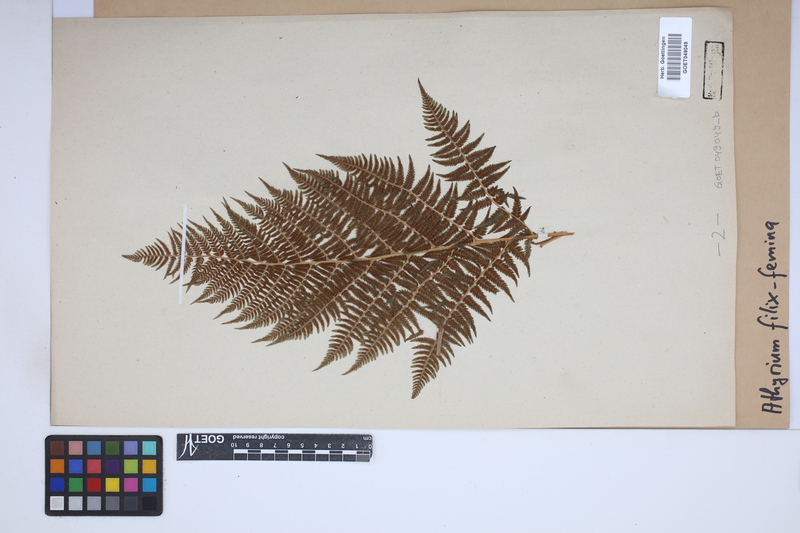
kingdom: Plantae
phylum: Tracheophyta
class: Polypodiopsida
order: Polypodiales
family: Athyriaceae
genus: Athyrium
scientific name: Athyrium filix-femina
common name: Lady fern
